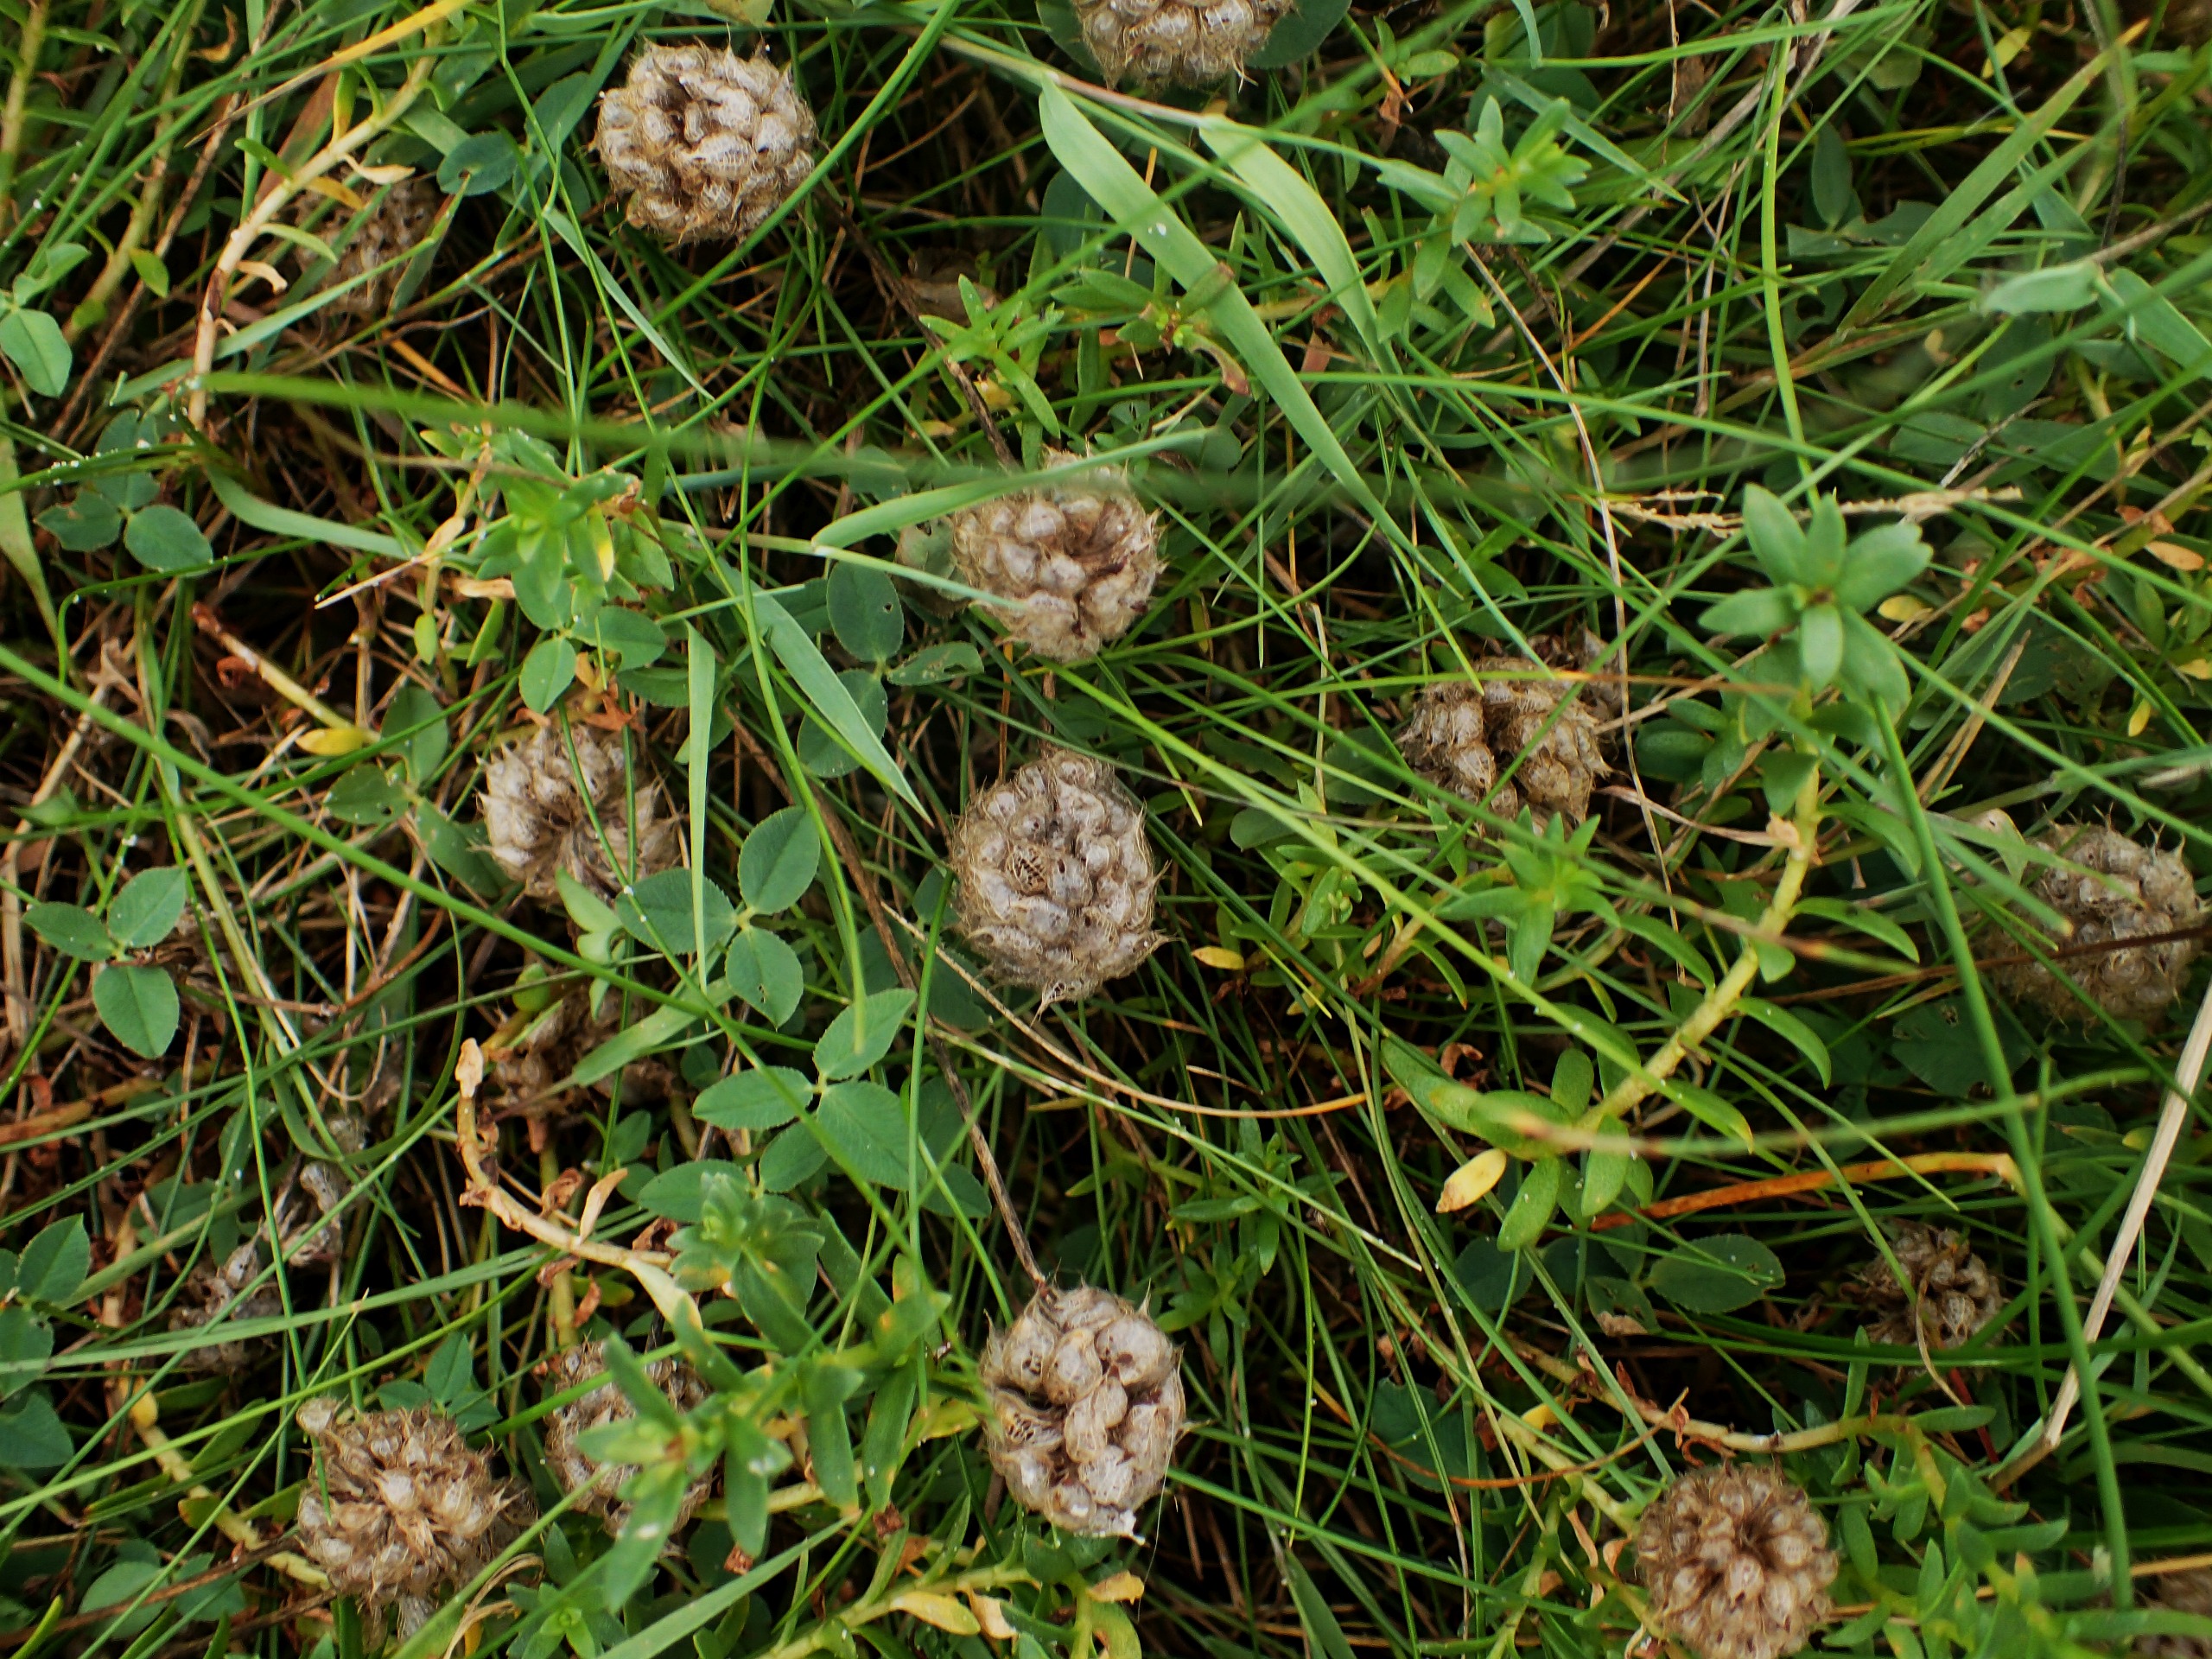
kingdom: Plantae
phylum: Tracheophyta
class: Magnoliopsida
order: Fabales
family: Fabaceae
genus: Trifolium
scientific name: Trifolium fragiferum
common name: Jordbær-kløver
